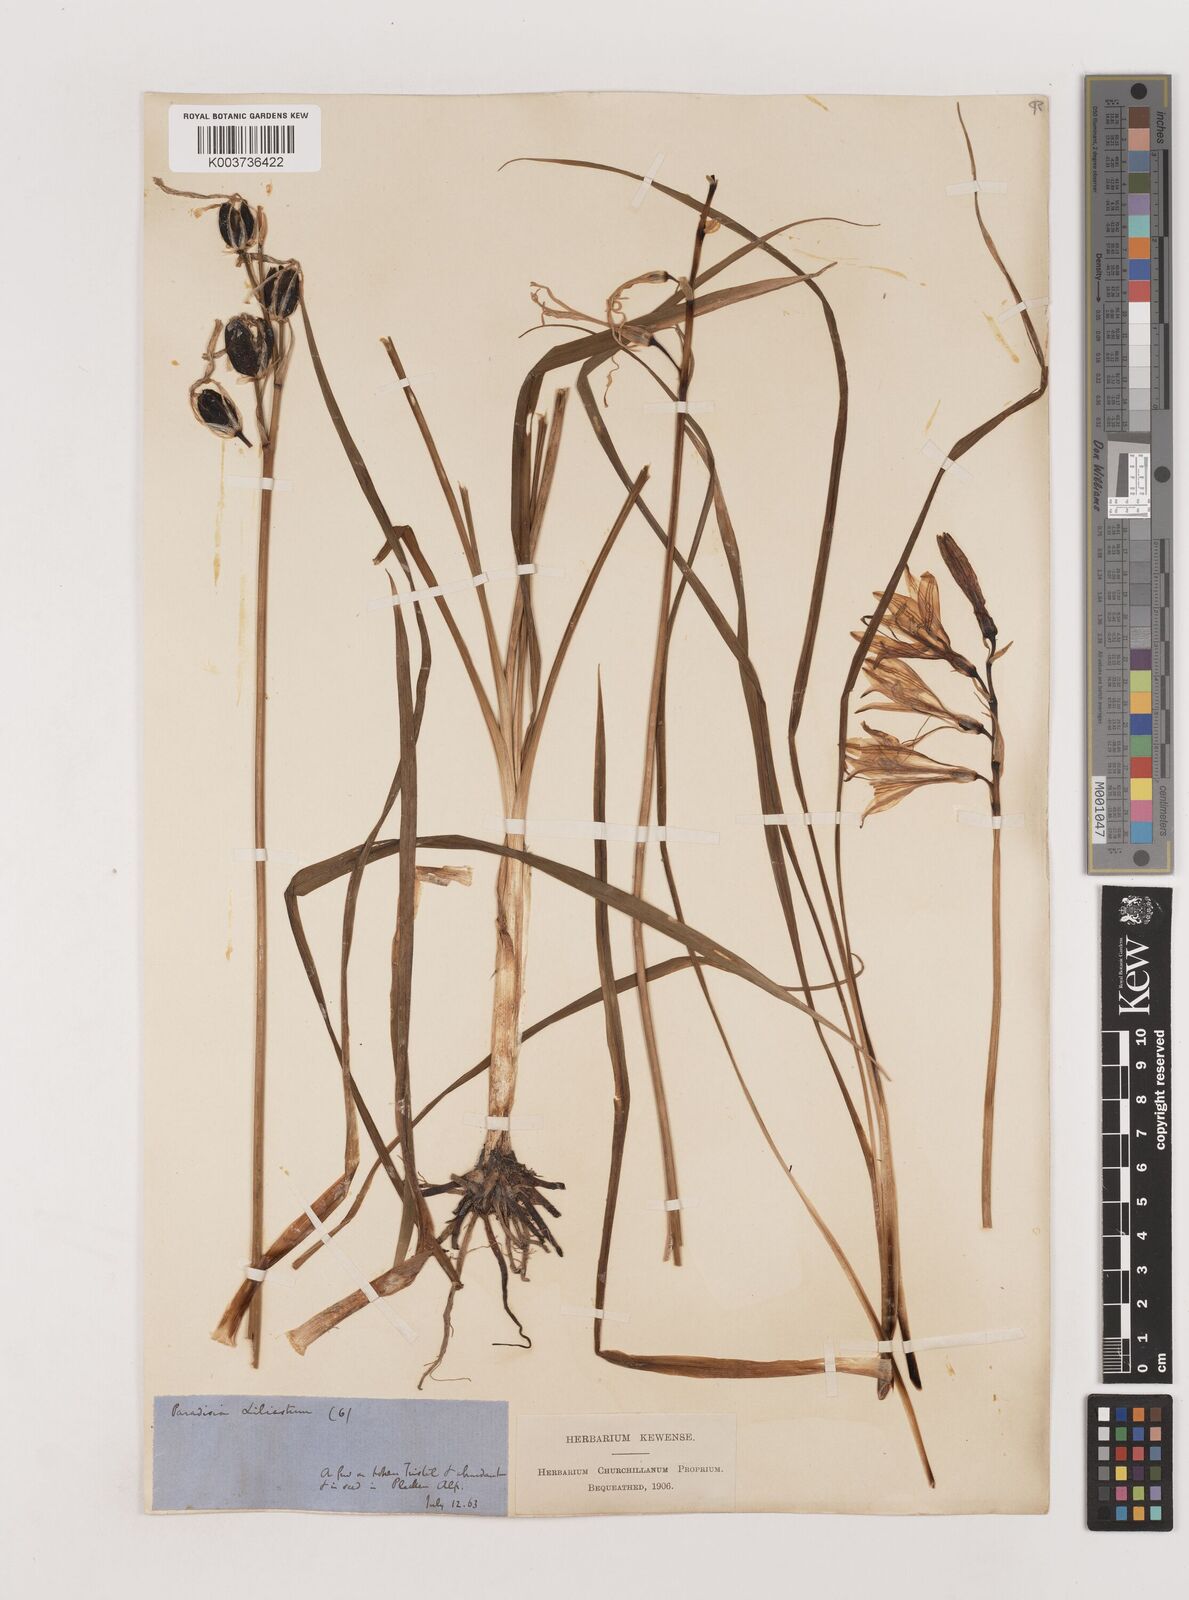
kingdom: Plantae
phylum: Tracheophyta
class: Liliopsida
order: Asparagales
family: Asparagaceae
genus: Paradisea
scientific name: Paradisea liliastrum
